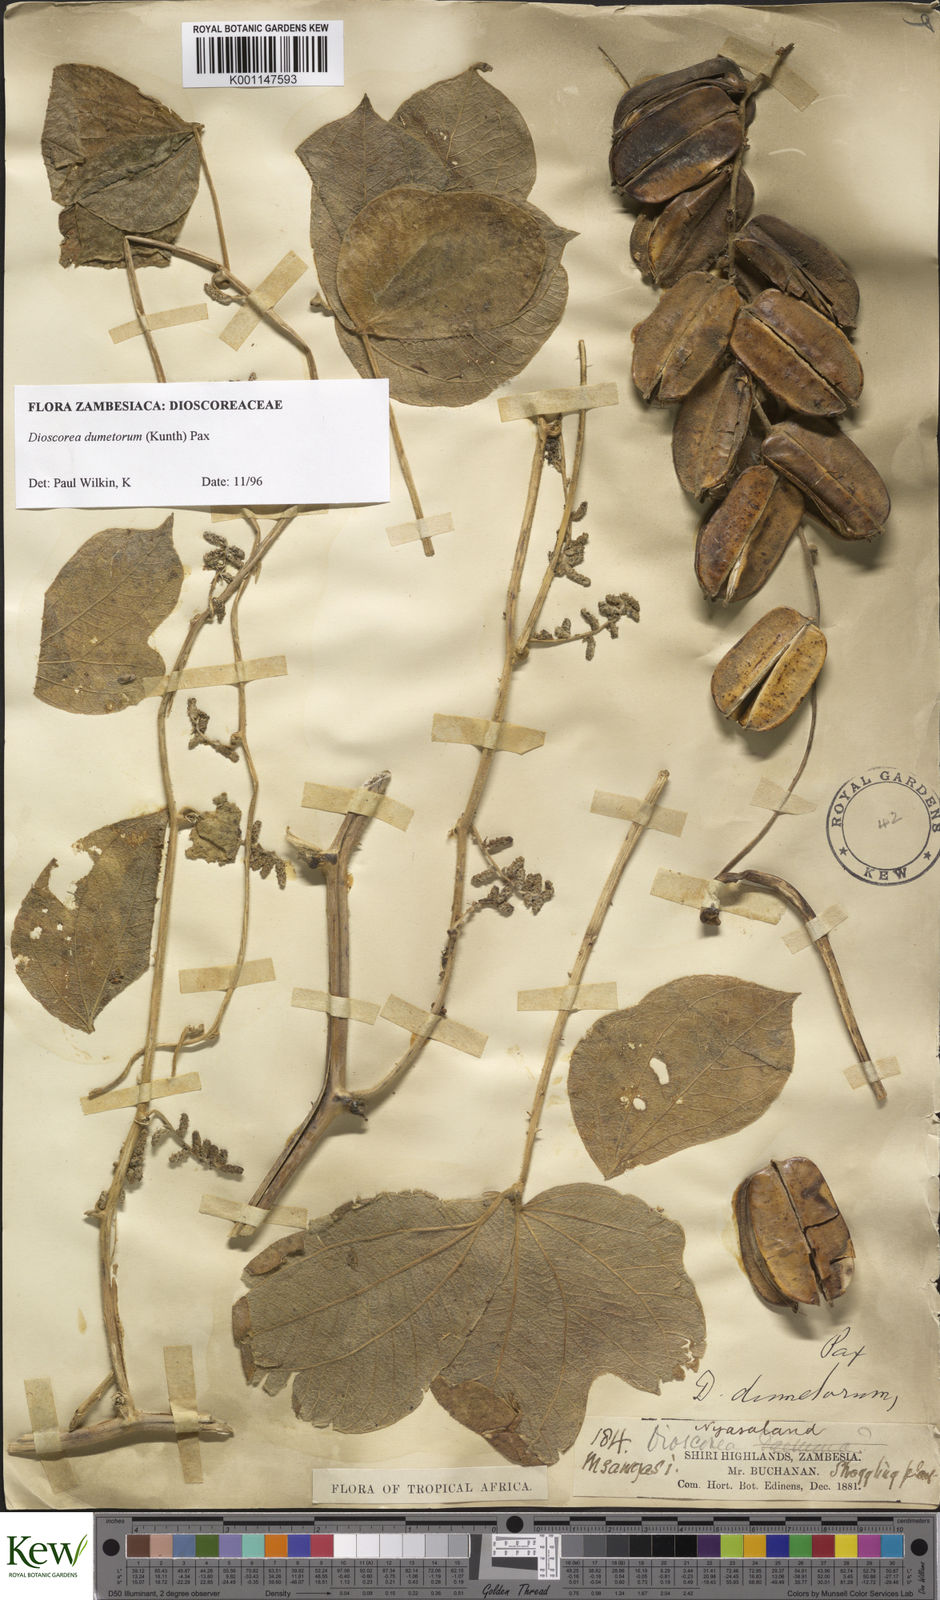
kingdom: Plantae
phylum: Tracheophyta
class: Liliopsida
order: Dioscoreales
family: Dioscoreaceae
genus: Dioscorea
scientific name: Dioscorea dumetorum
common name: African bitter yam
